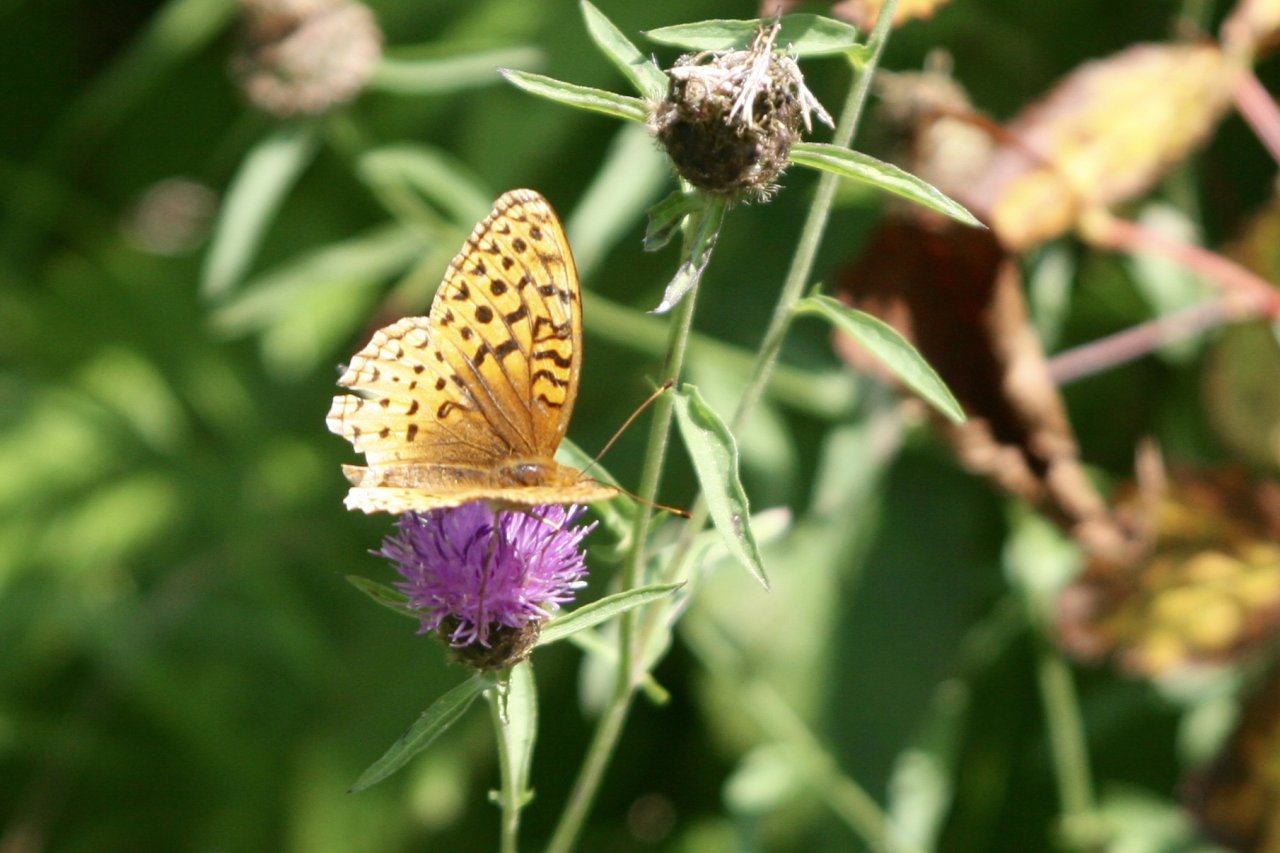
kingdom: Animalia
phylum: Arthropoda
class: Insecta
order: Lepidoptera
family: Nymphalidae
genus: Speyeria
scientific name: Speyeria cybele
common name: Great Spangled Fritillary
